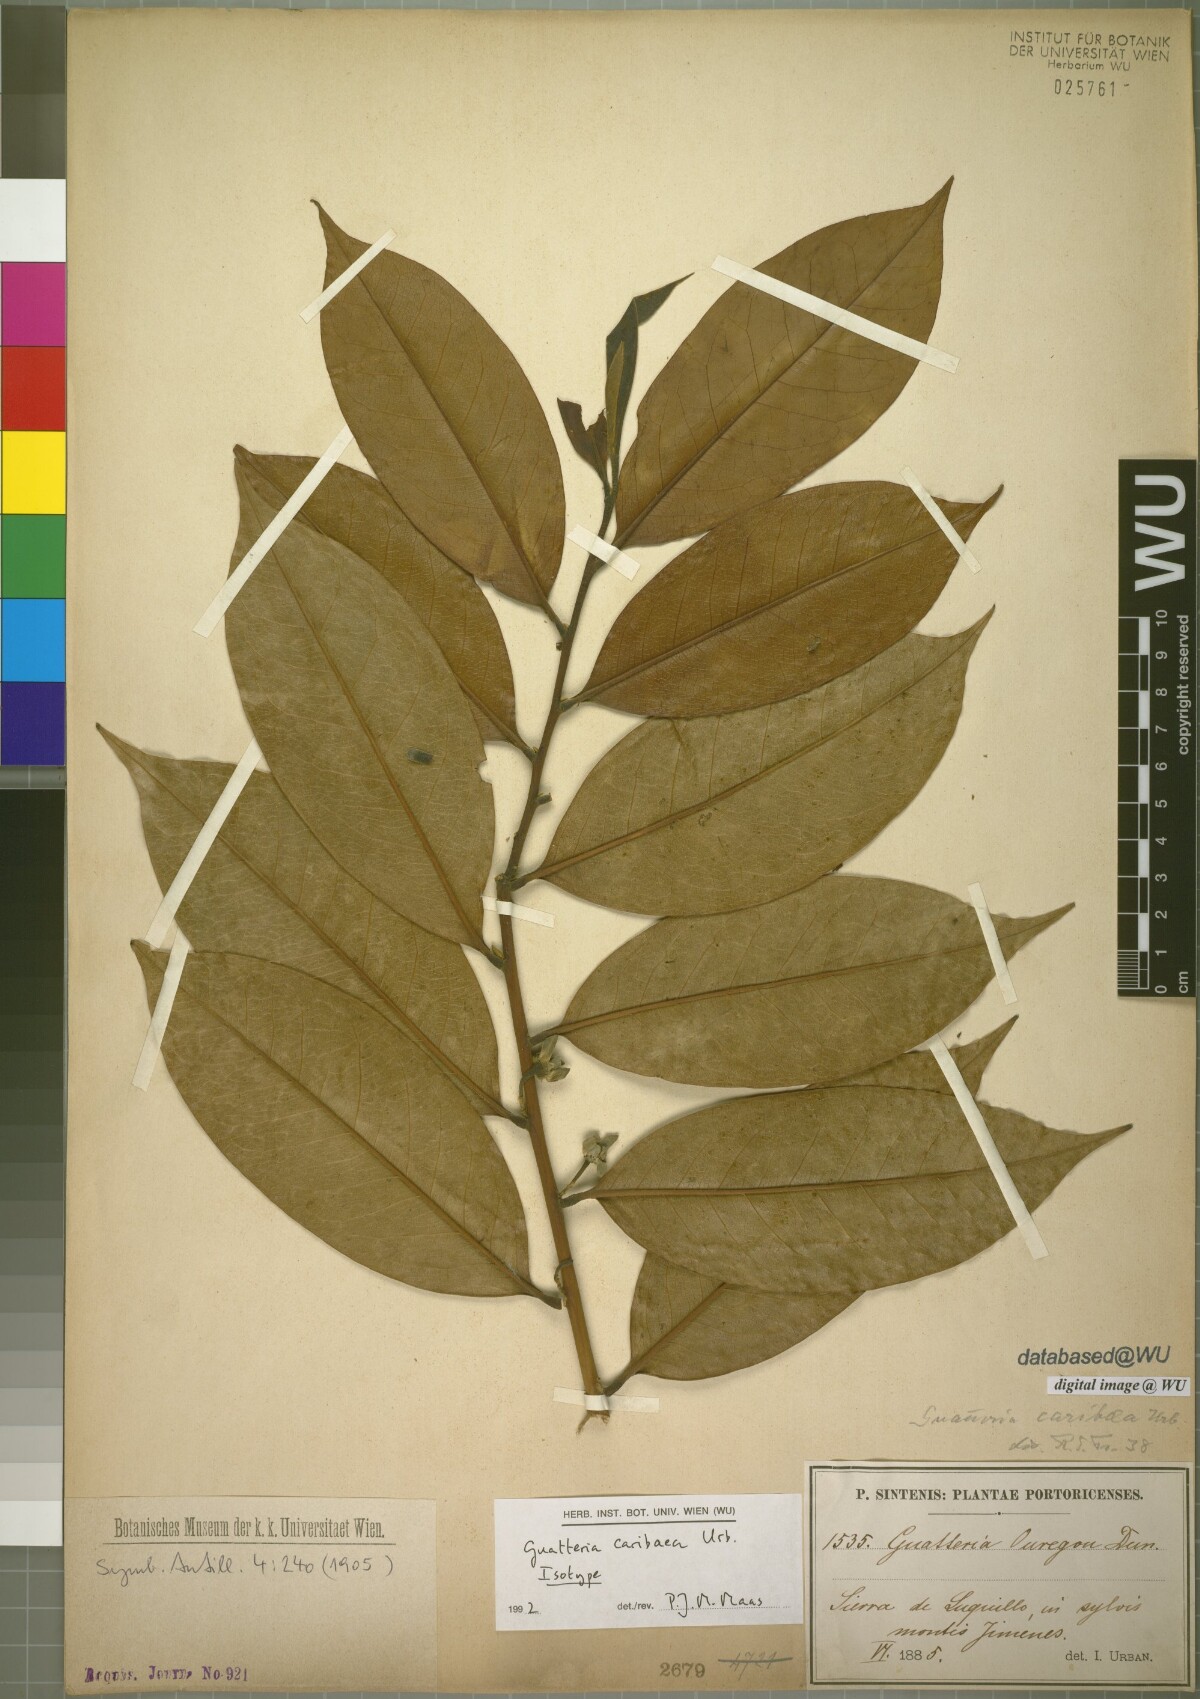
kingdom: Plantae
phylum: Tracheophyta
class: Magnoliopsida
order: Magnoliales
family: Annonaceae
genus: Guatteria
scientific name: Guatteria caribaea
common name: Wild soursop
